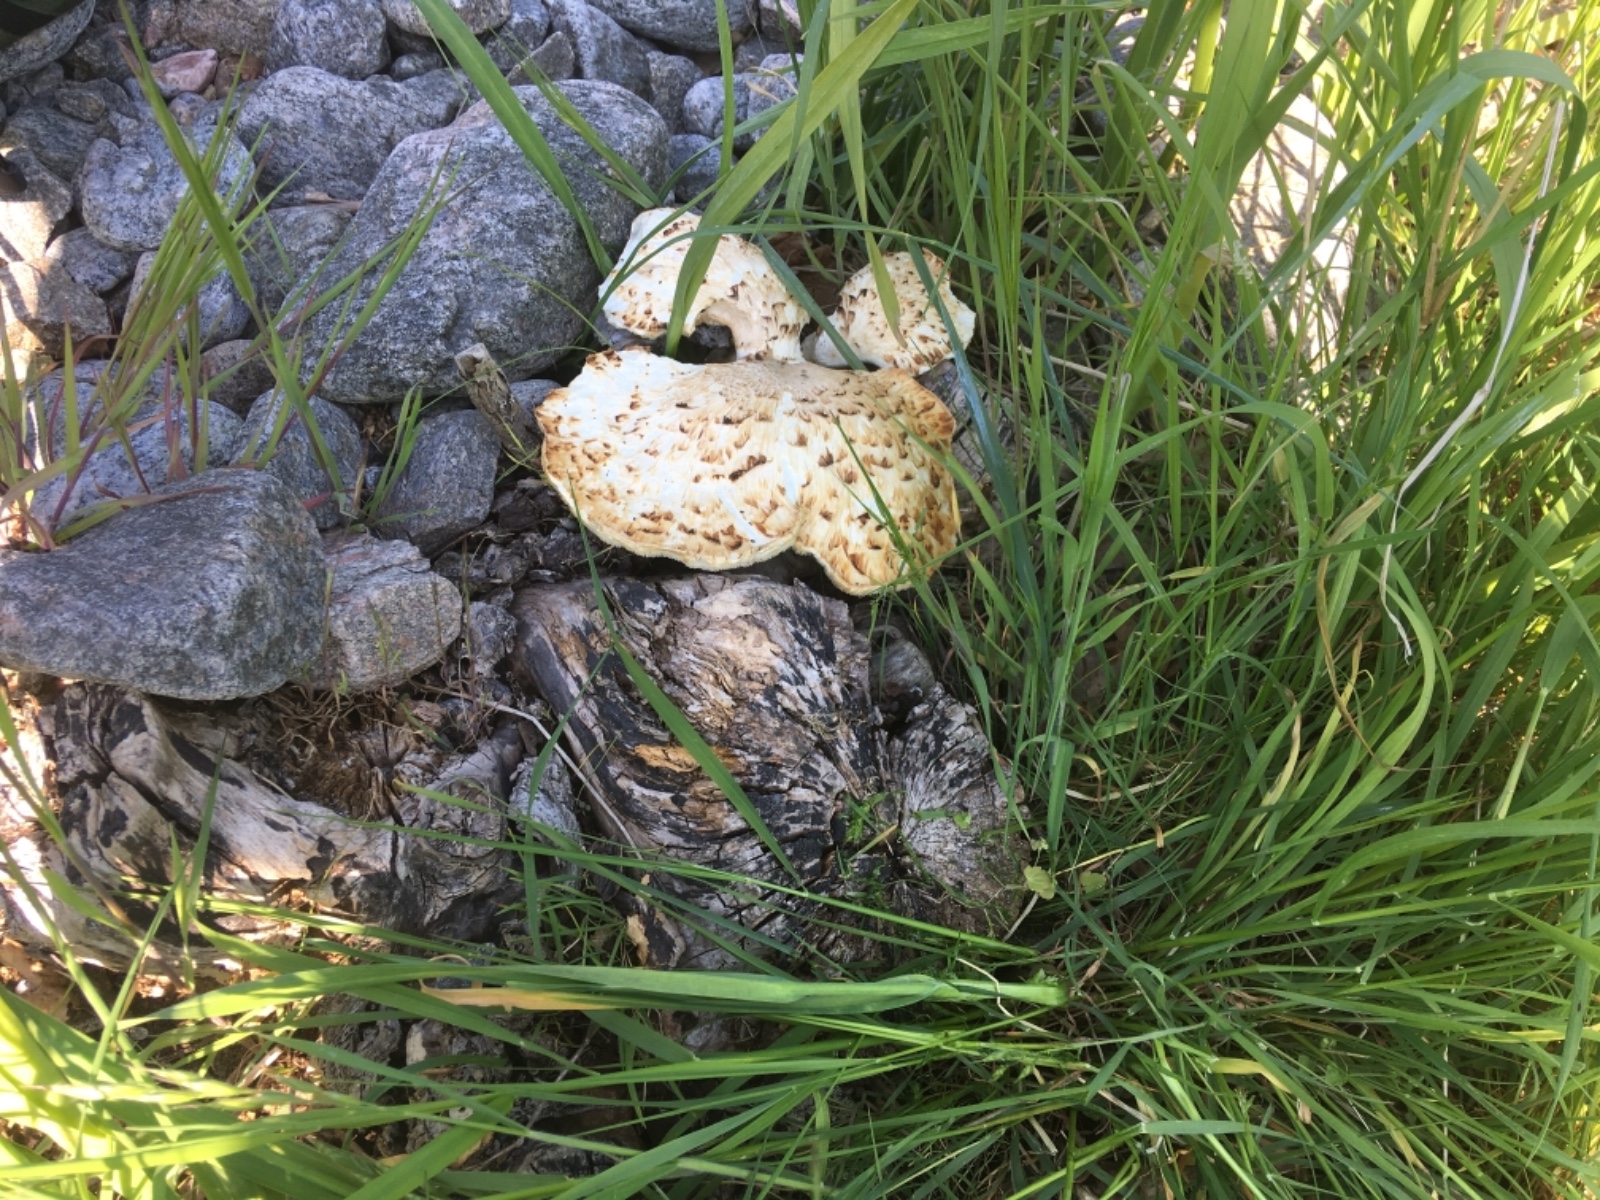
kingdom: Fungi
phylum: Basidiomycota
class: Agaricomycetes
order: Polyporales
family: Polyporaceae
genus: Cerioporus
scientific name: Cerioporus squamosus
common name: skællet stilkporesvamp
